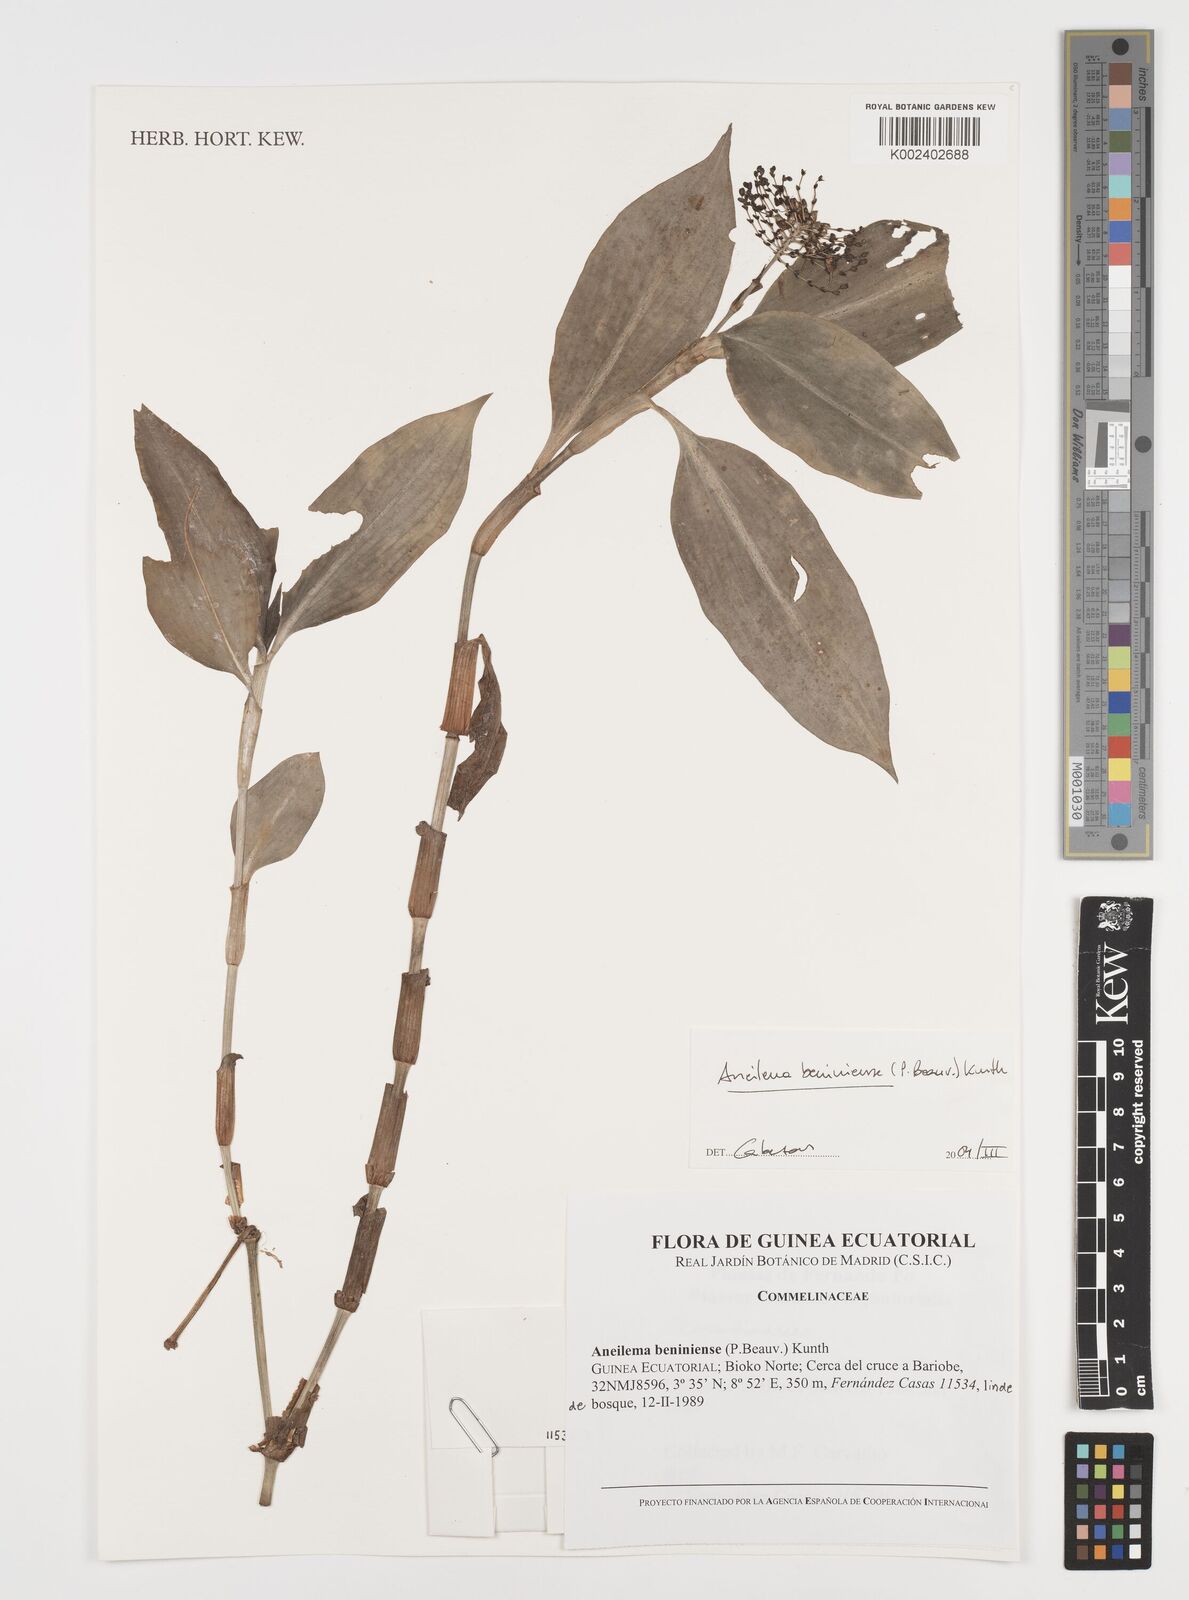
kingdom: Plantae
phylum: Tracheophyta
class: Liliopsida
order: Commelinales
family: Commelinaceae
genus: Aneilema
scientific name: Aneilema beniniense
